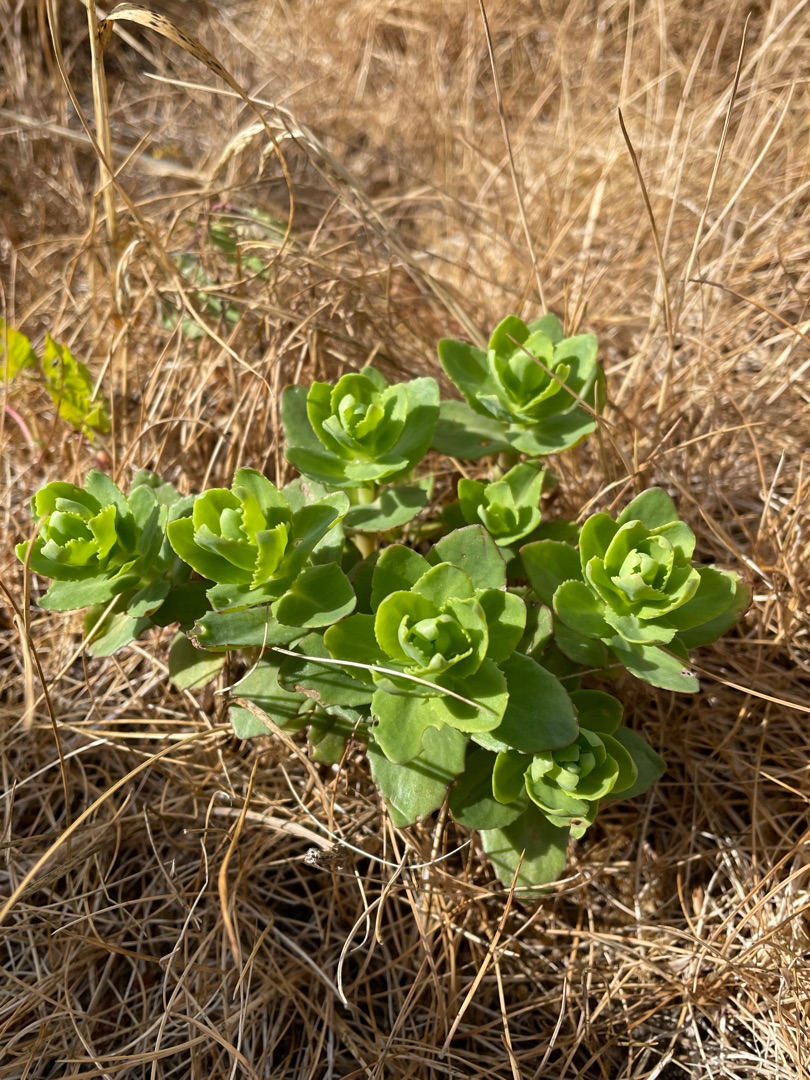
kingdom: Plantae
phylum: Tracheophyta
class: Magnoliopsida
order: Saxifragales
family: Crassulaceae
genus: Hylotelephium
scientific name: Hylotelephium telephium
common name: Sankthansurt
